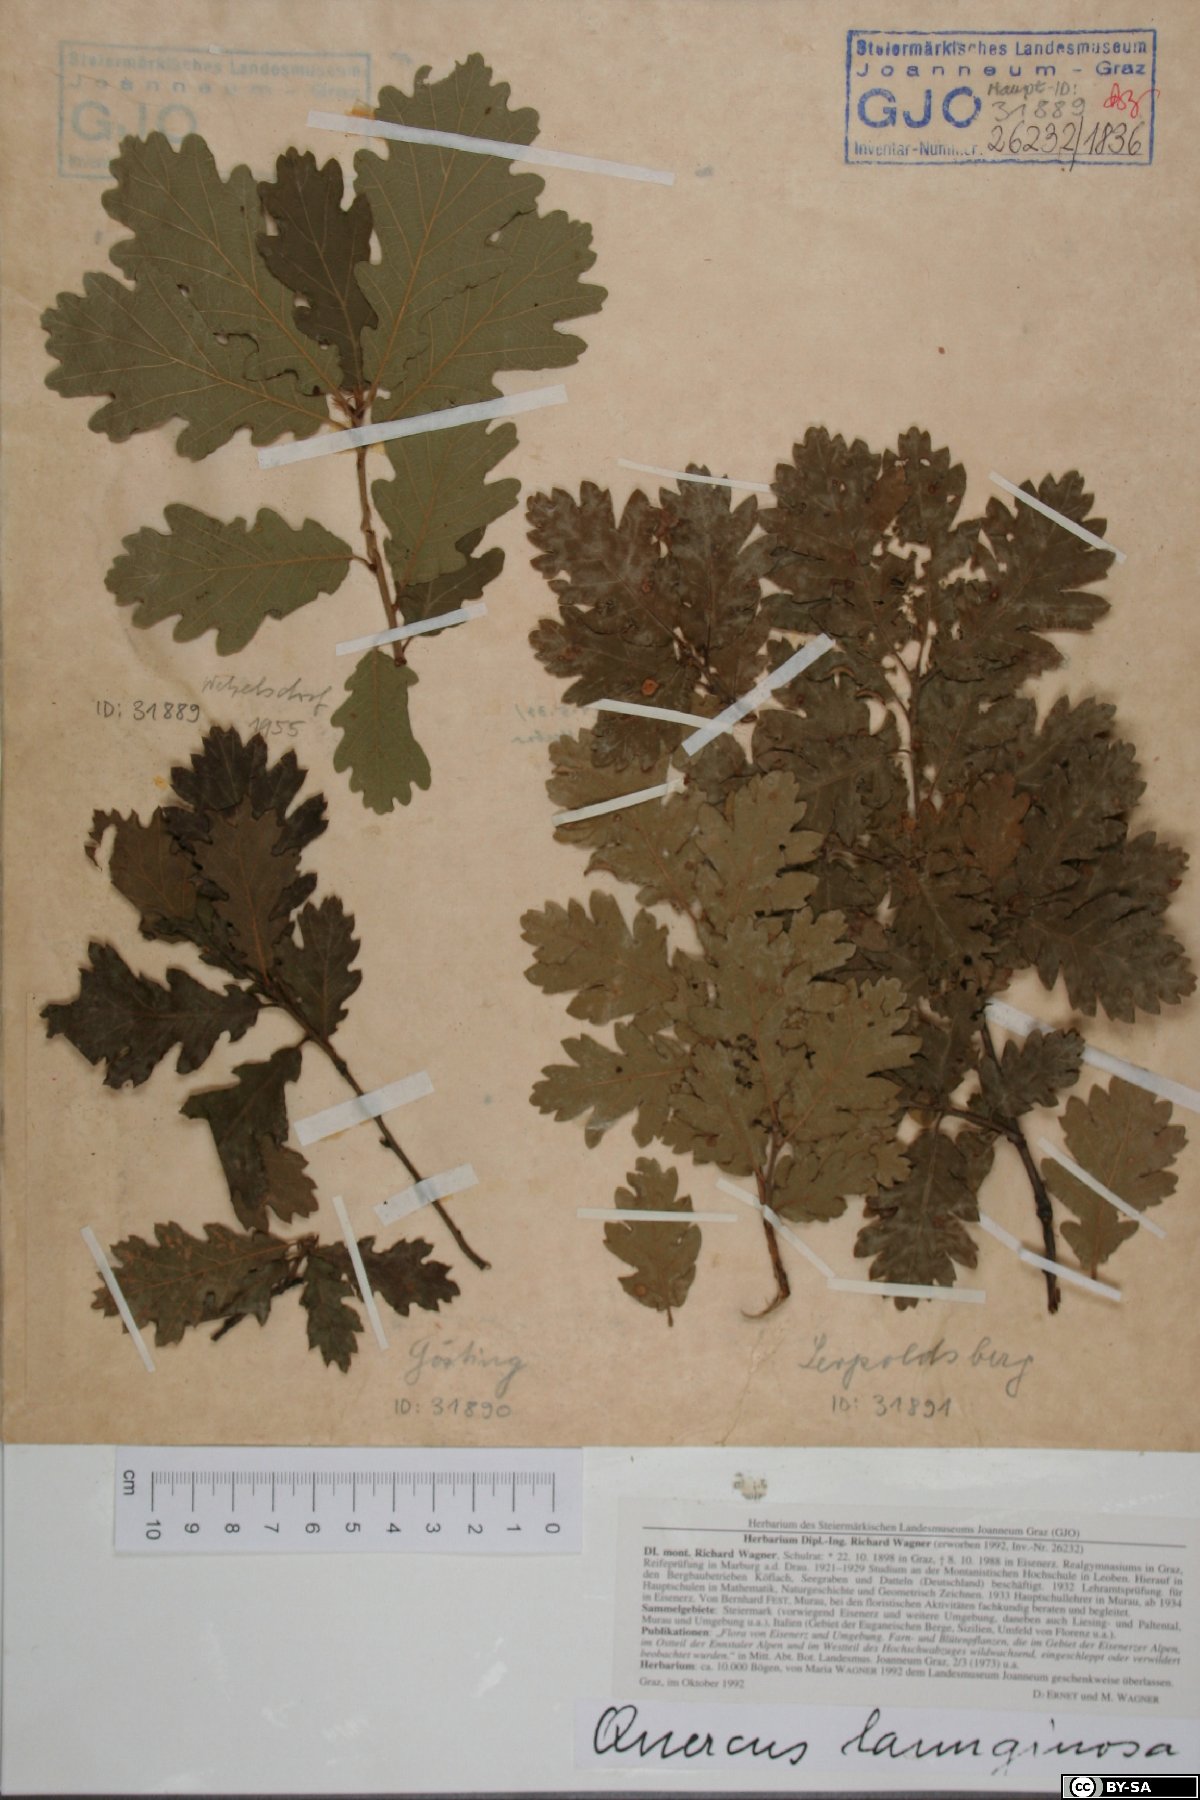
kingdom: Plantae
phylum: Tracheophyta
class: Magnoliopsida
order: Fagales
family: Fagaceae
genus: Quercus
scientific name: Quercus pubescens
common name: Downy oak
